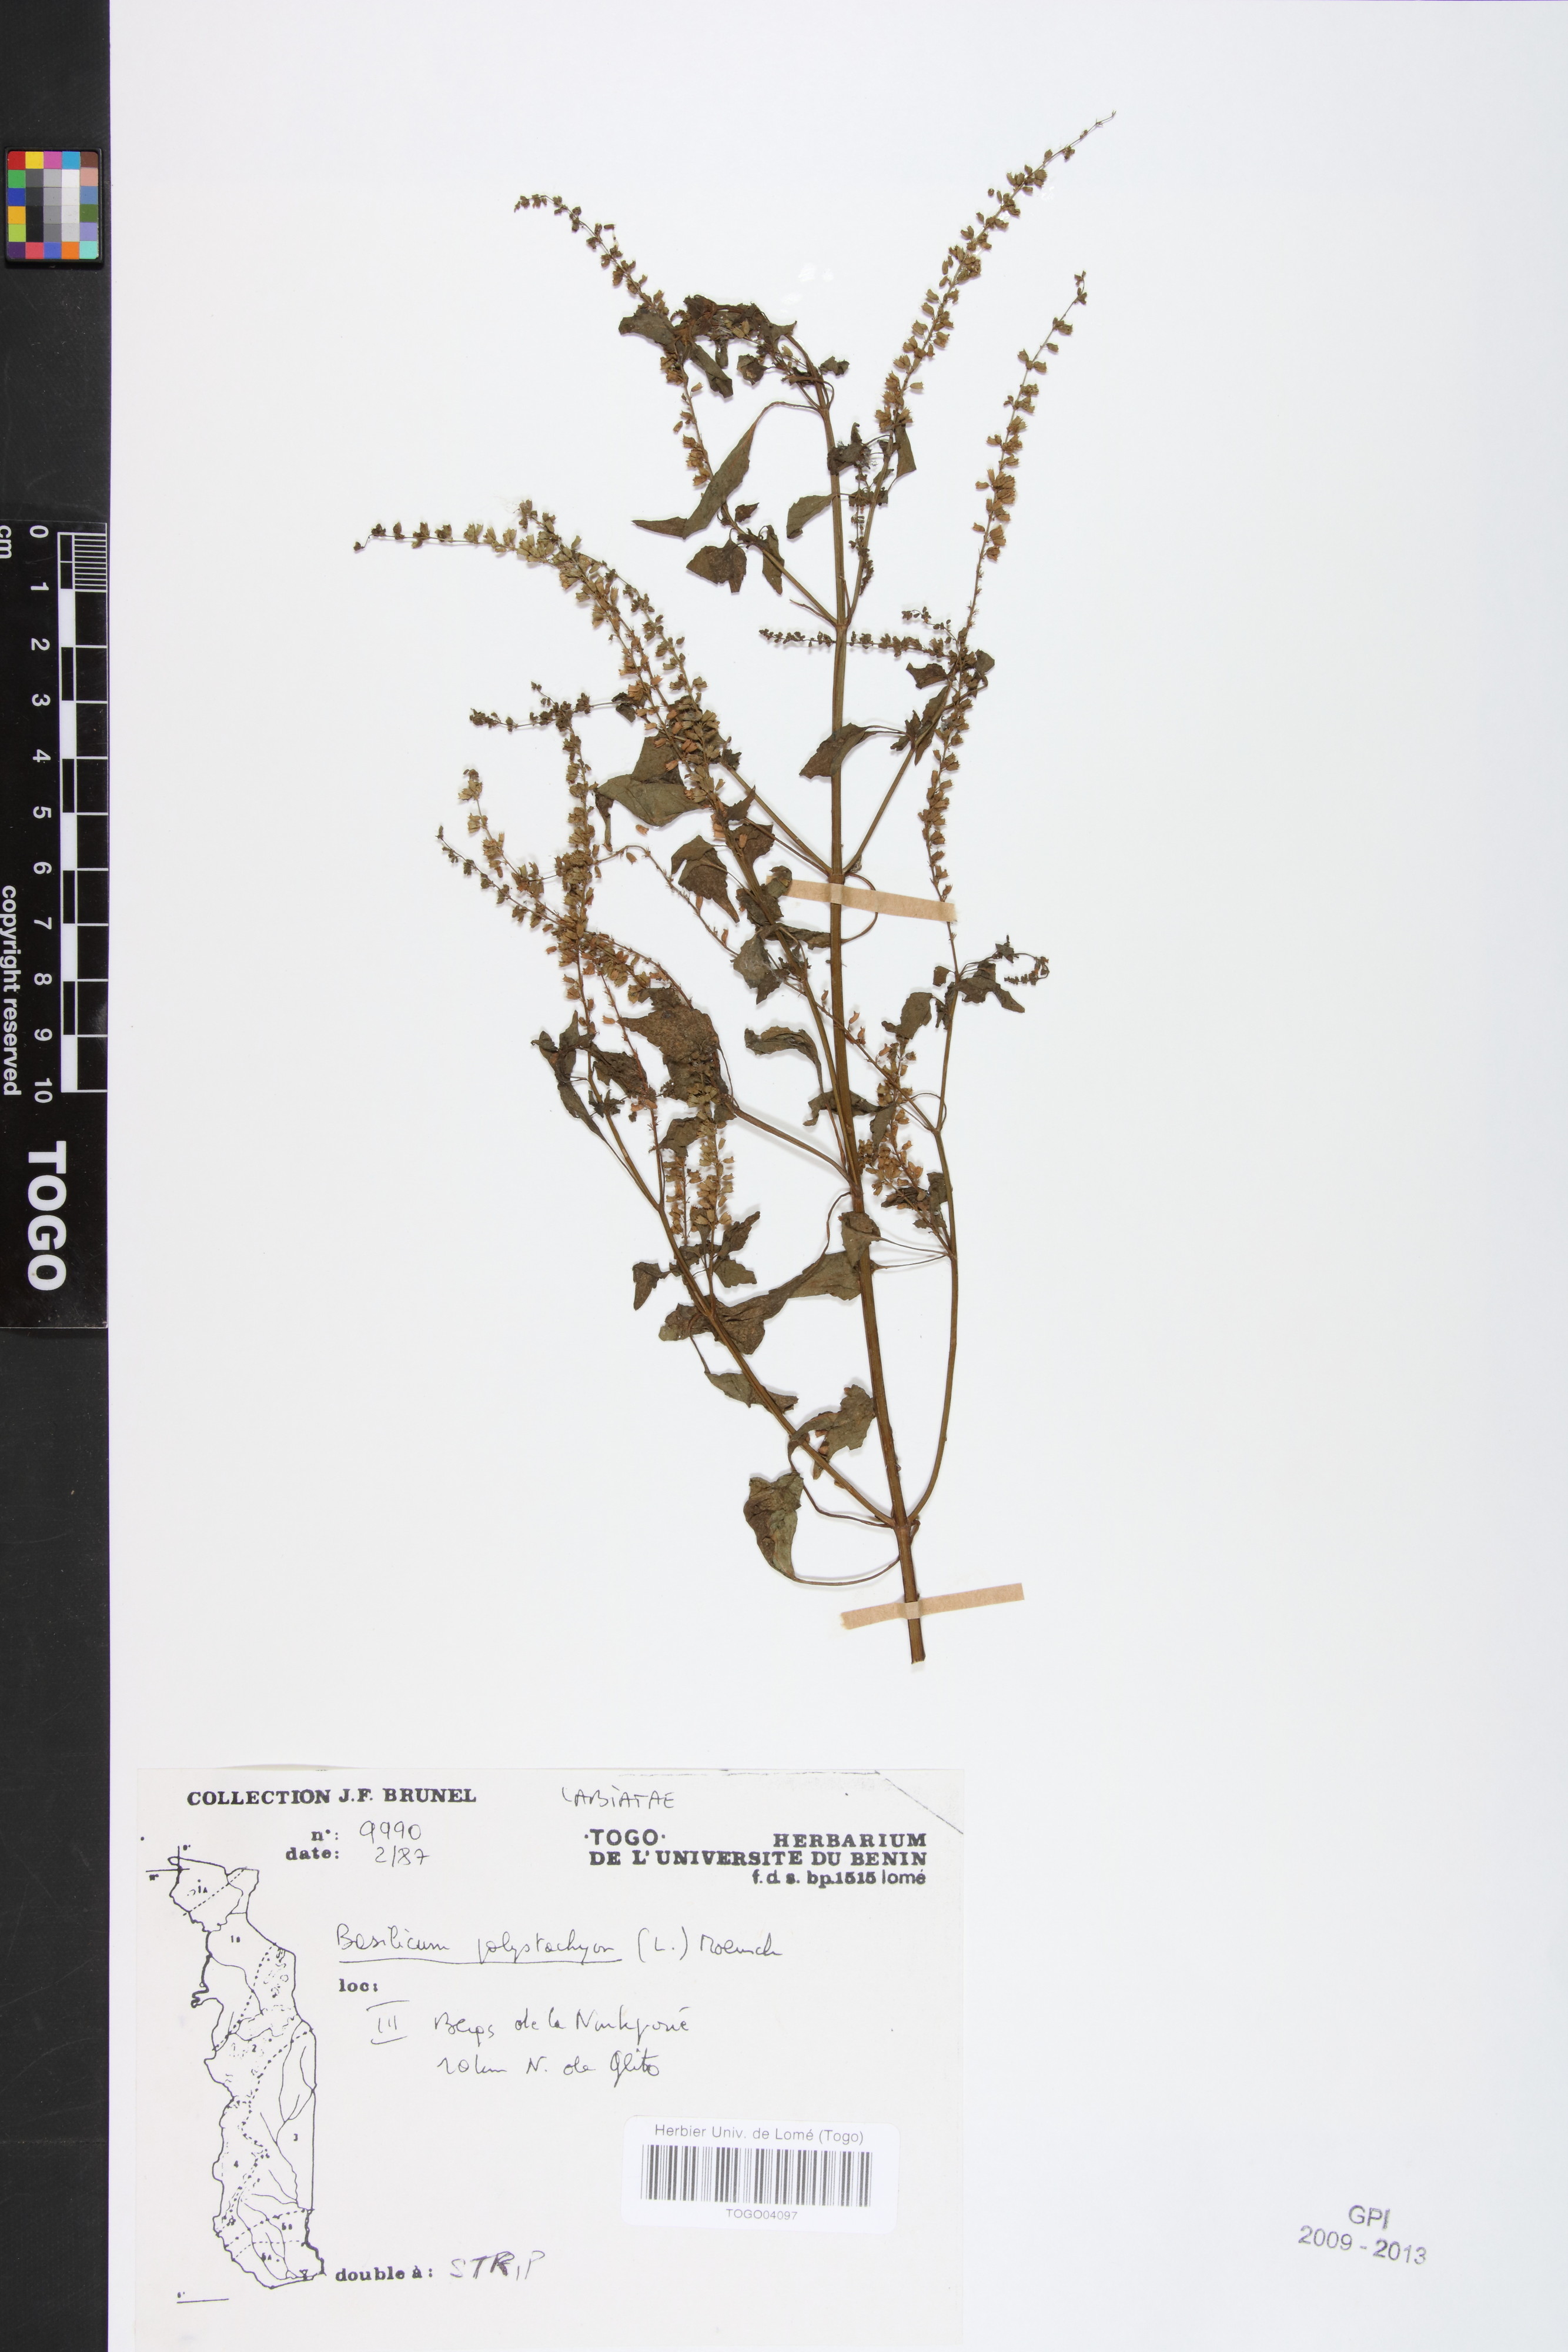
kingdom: Plantae
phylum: Tracheophyta
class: Magnoliopsida
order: Lamiales
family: Lamiaceae
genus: Basilicum
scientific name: Basilicum polystachyon
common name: Musk-basil
